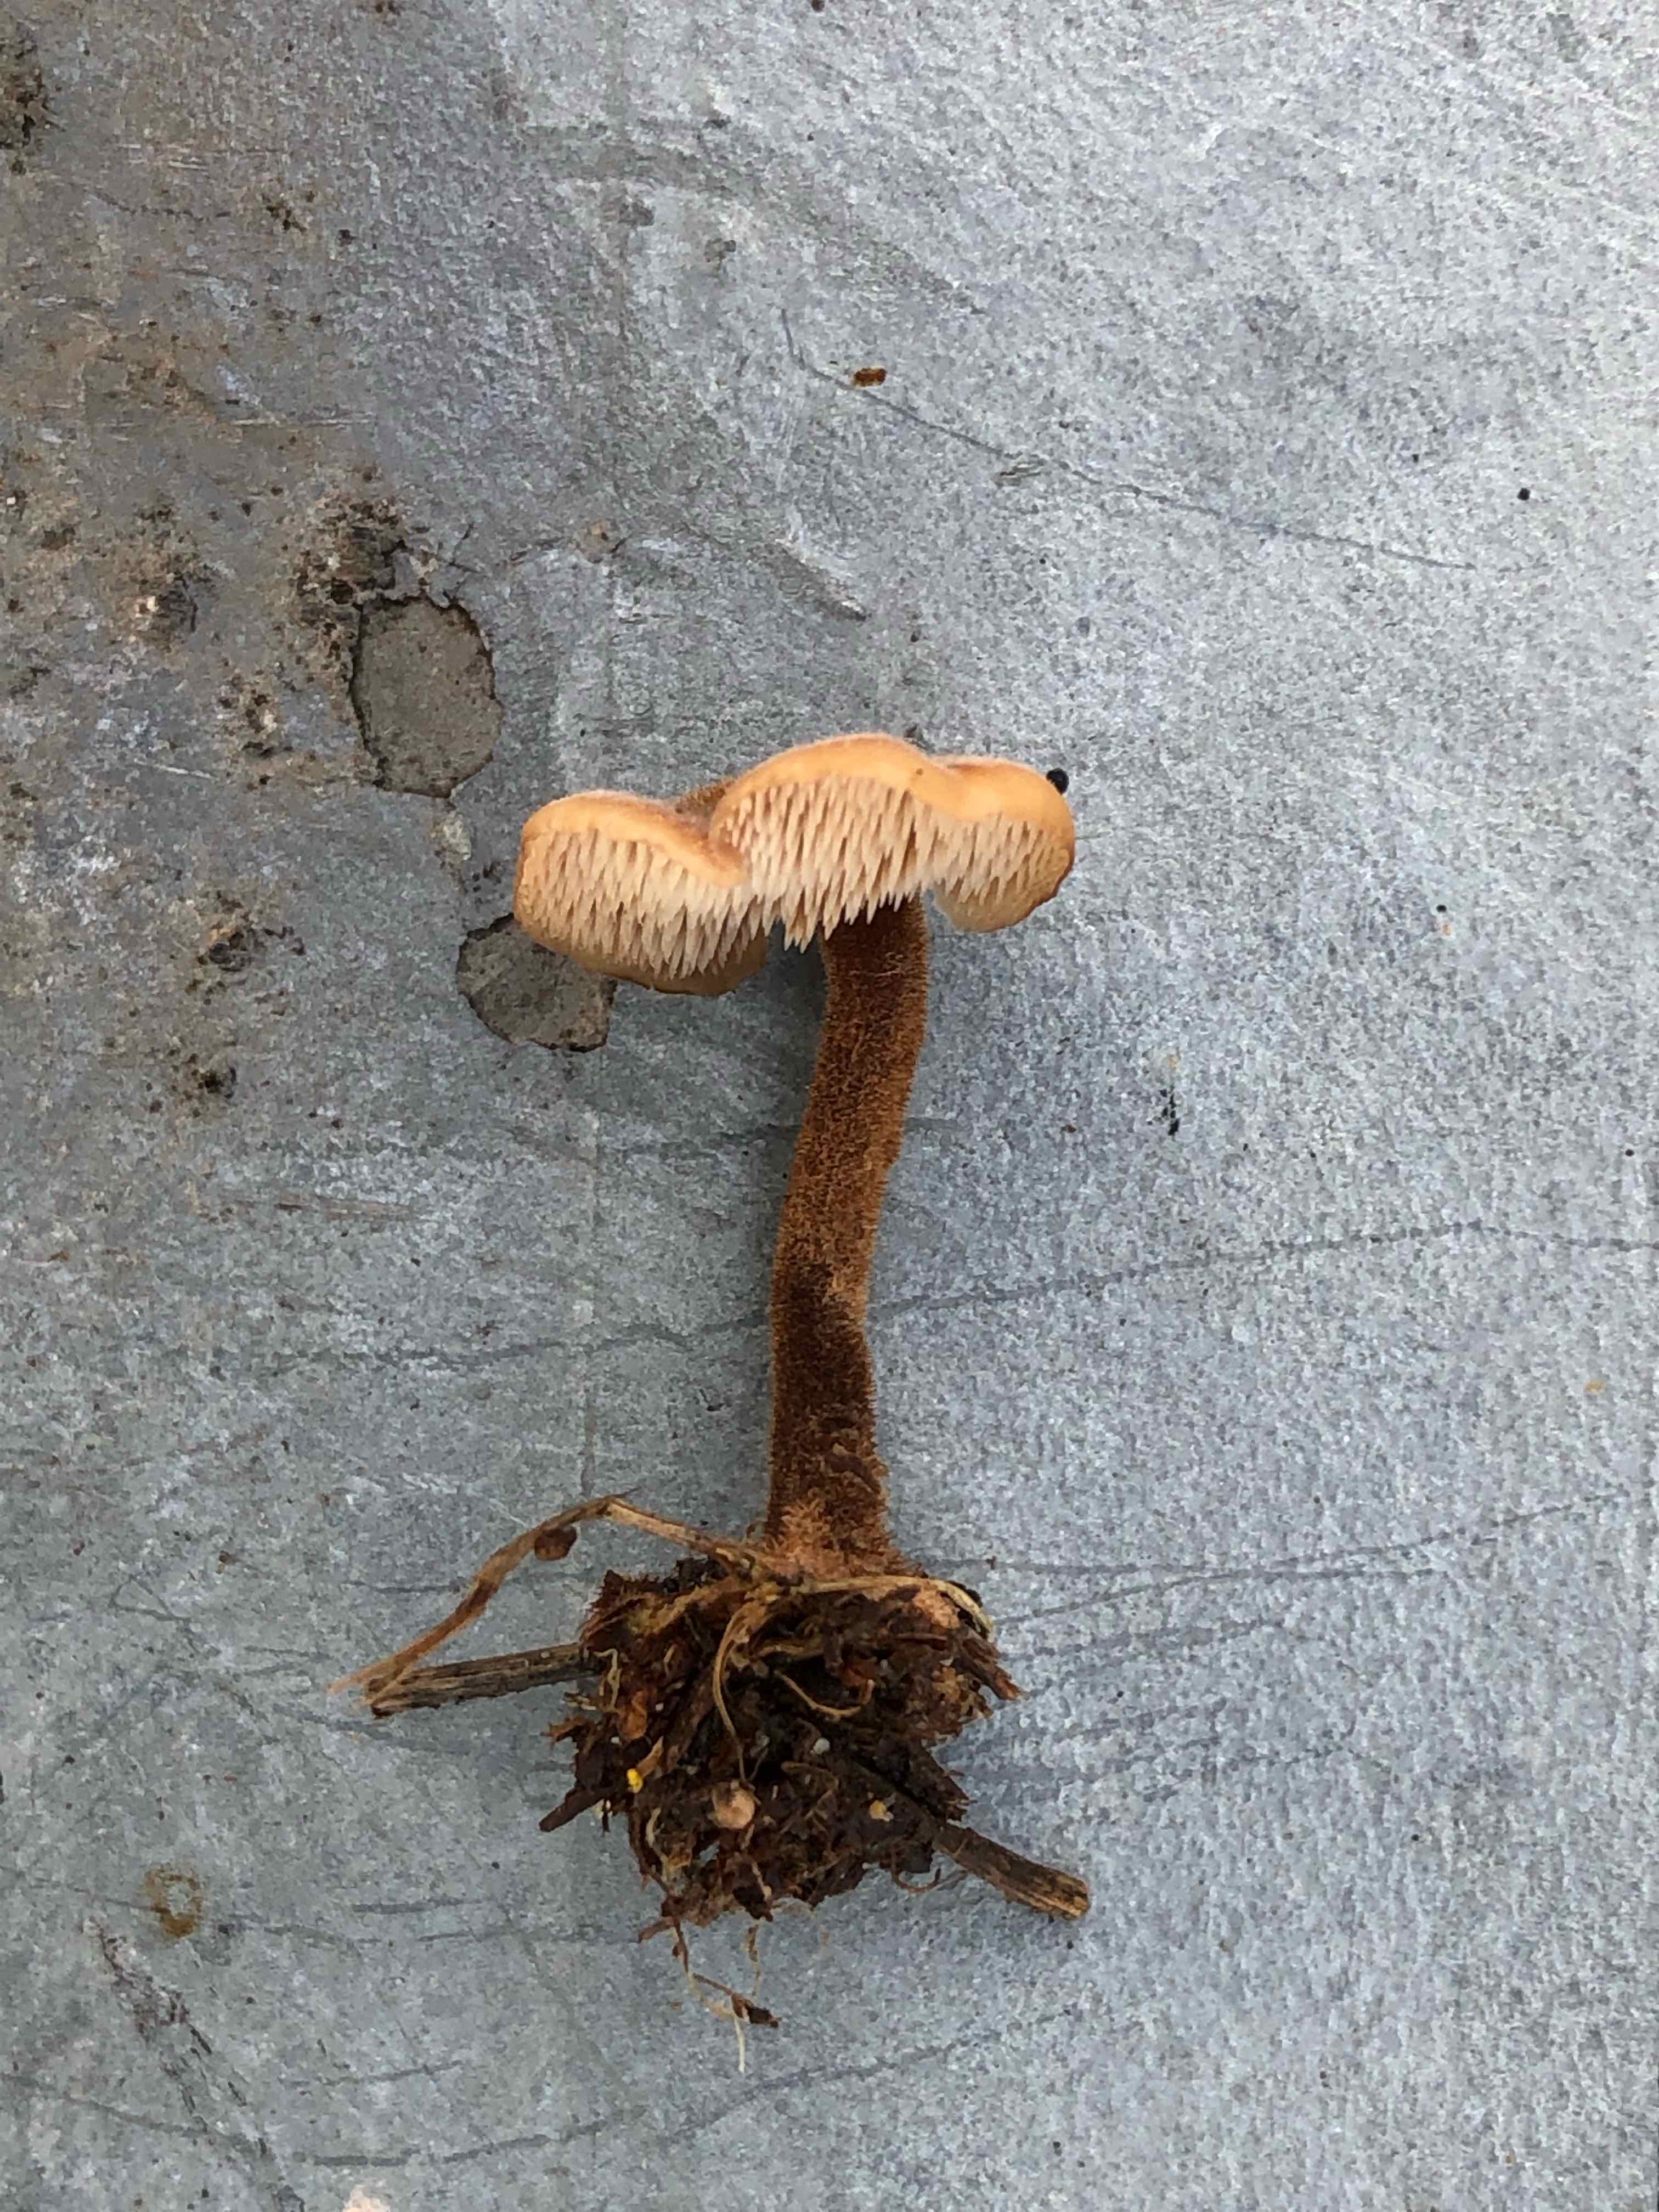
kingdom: Fungi
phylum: Basidiomycota
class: Agaricomycetes
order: Russulales
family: Auriscalpiaceae
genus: Auriscalpium
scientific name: Auriscalpium vulgare
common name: koglepigsvamp
